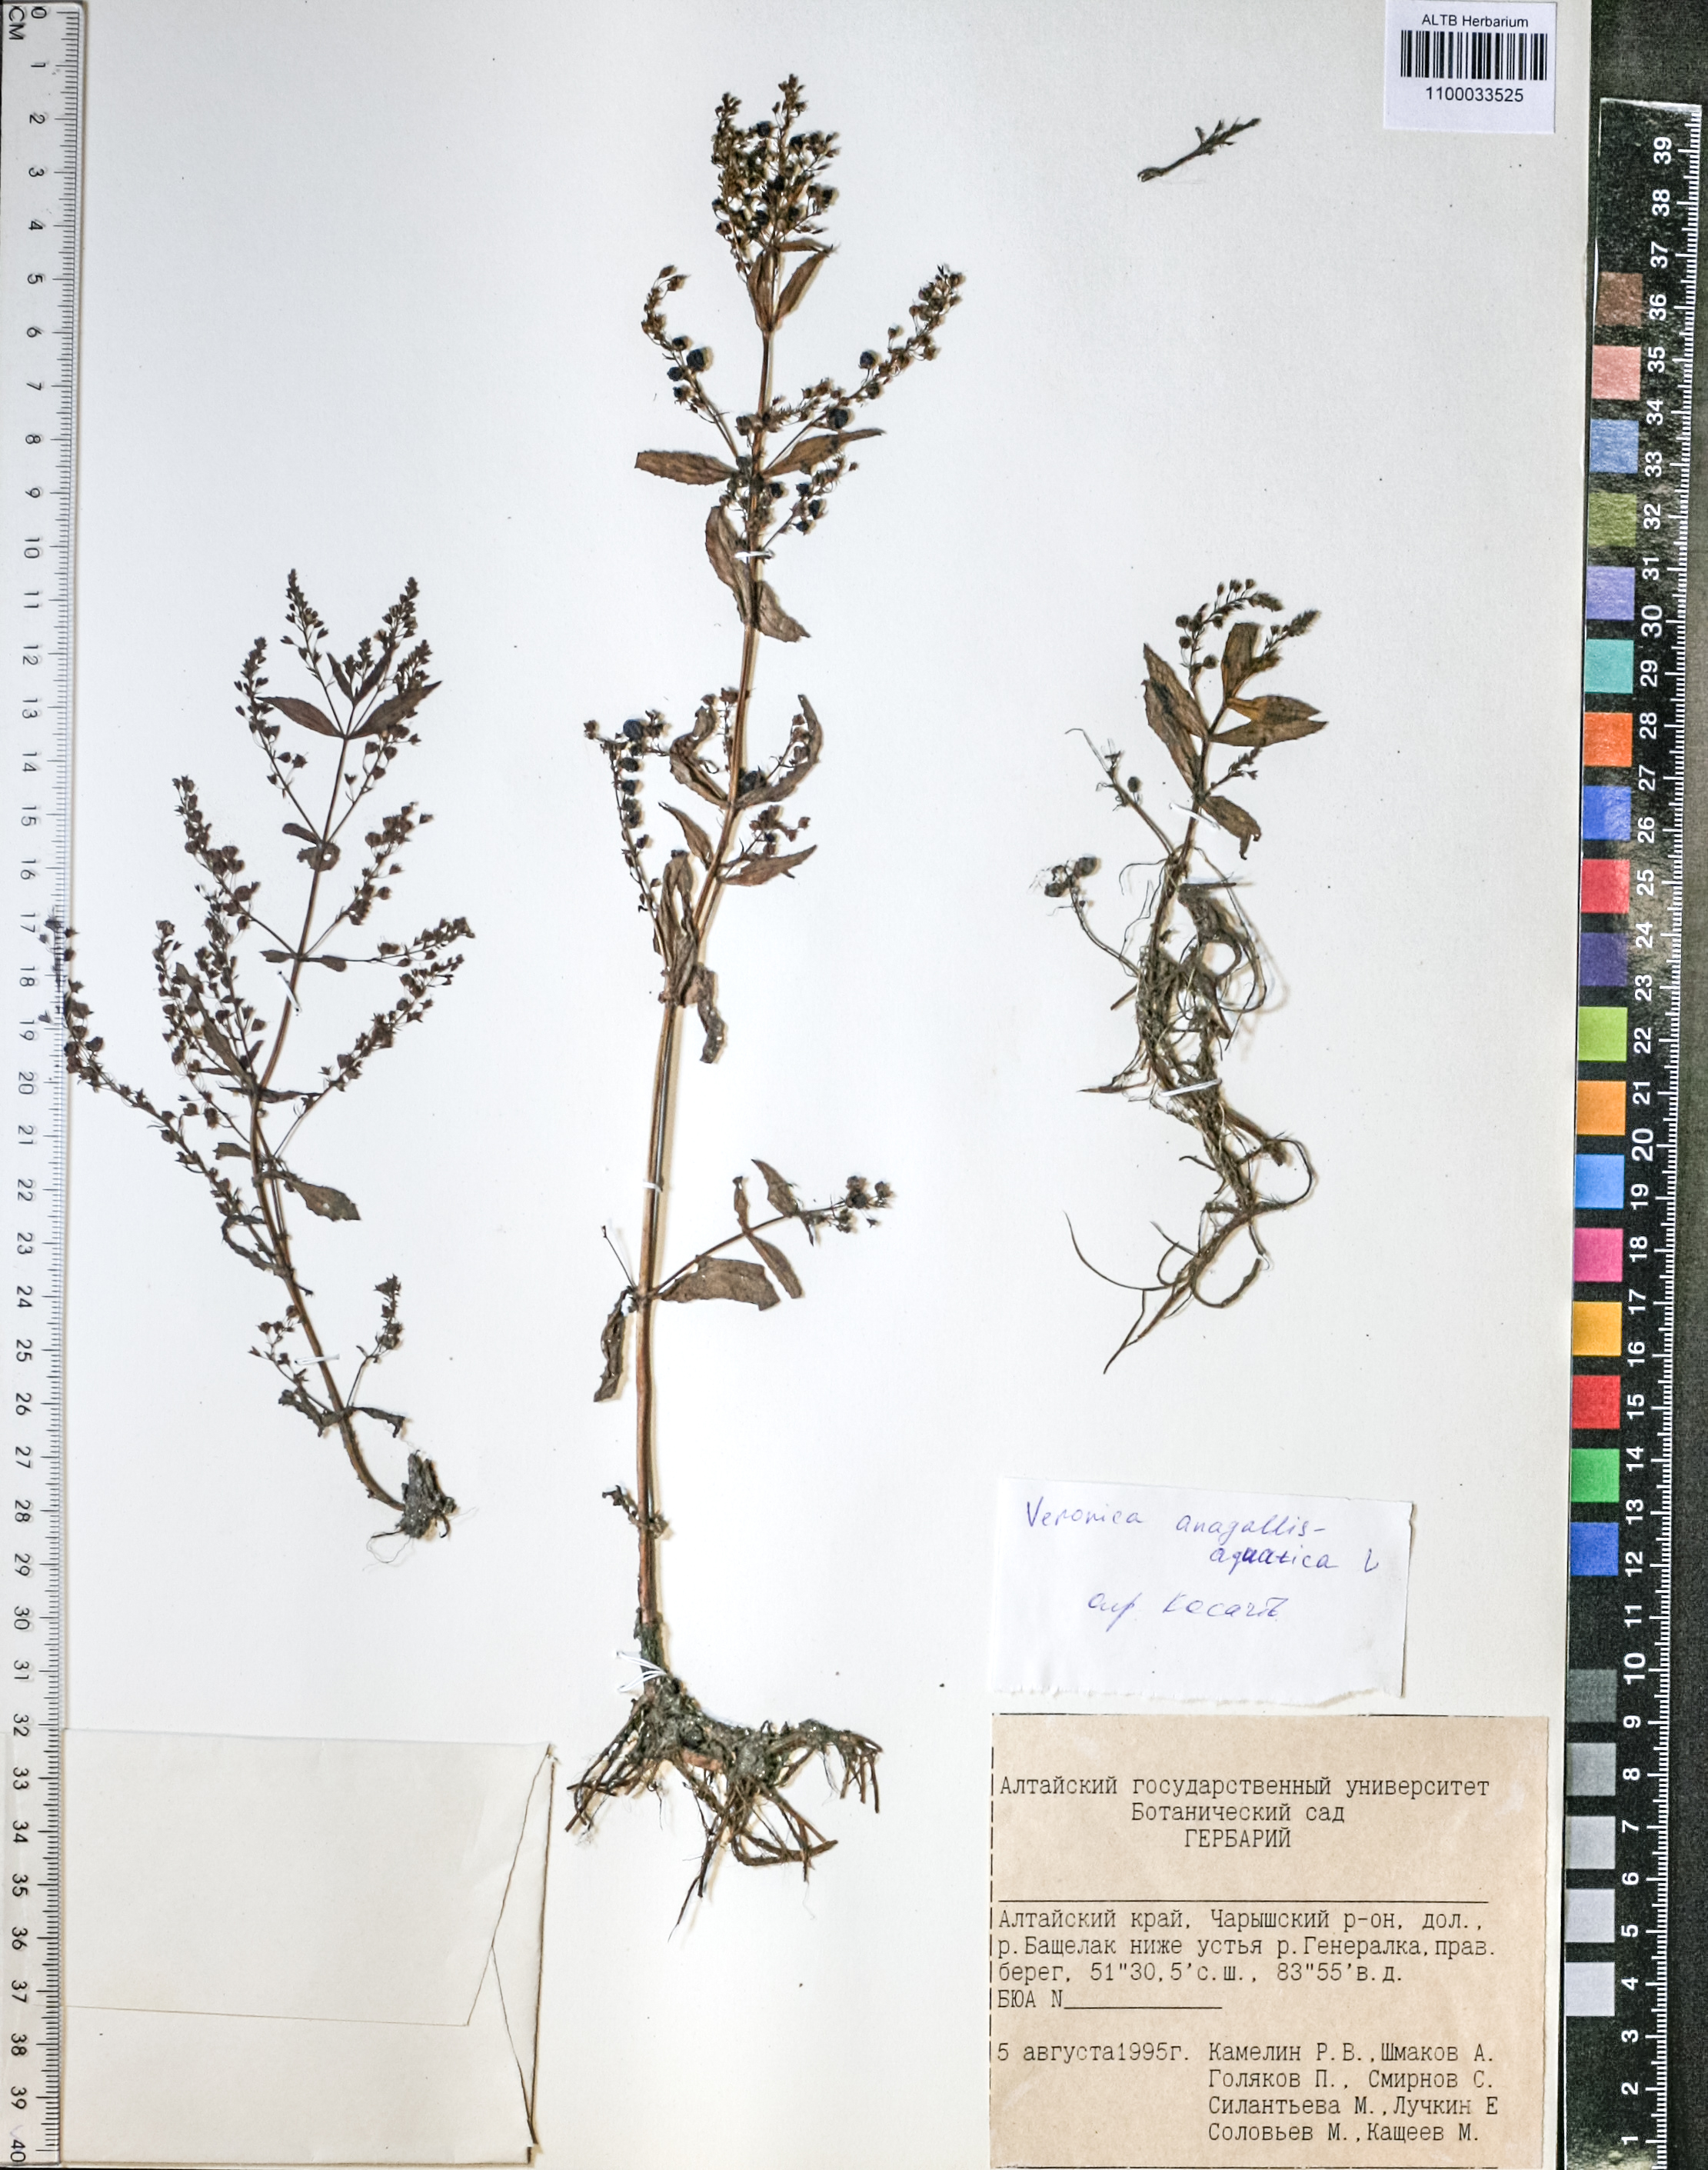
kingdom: Plantae
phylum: Tracheophyta
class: Magnoliopsida
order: Lamiales
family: Plantaginaceae
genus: Veronica
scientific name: Veronica anagallis-aquatica
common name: Water speedwell
